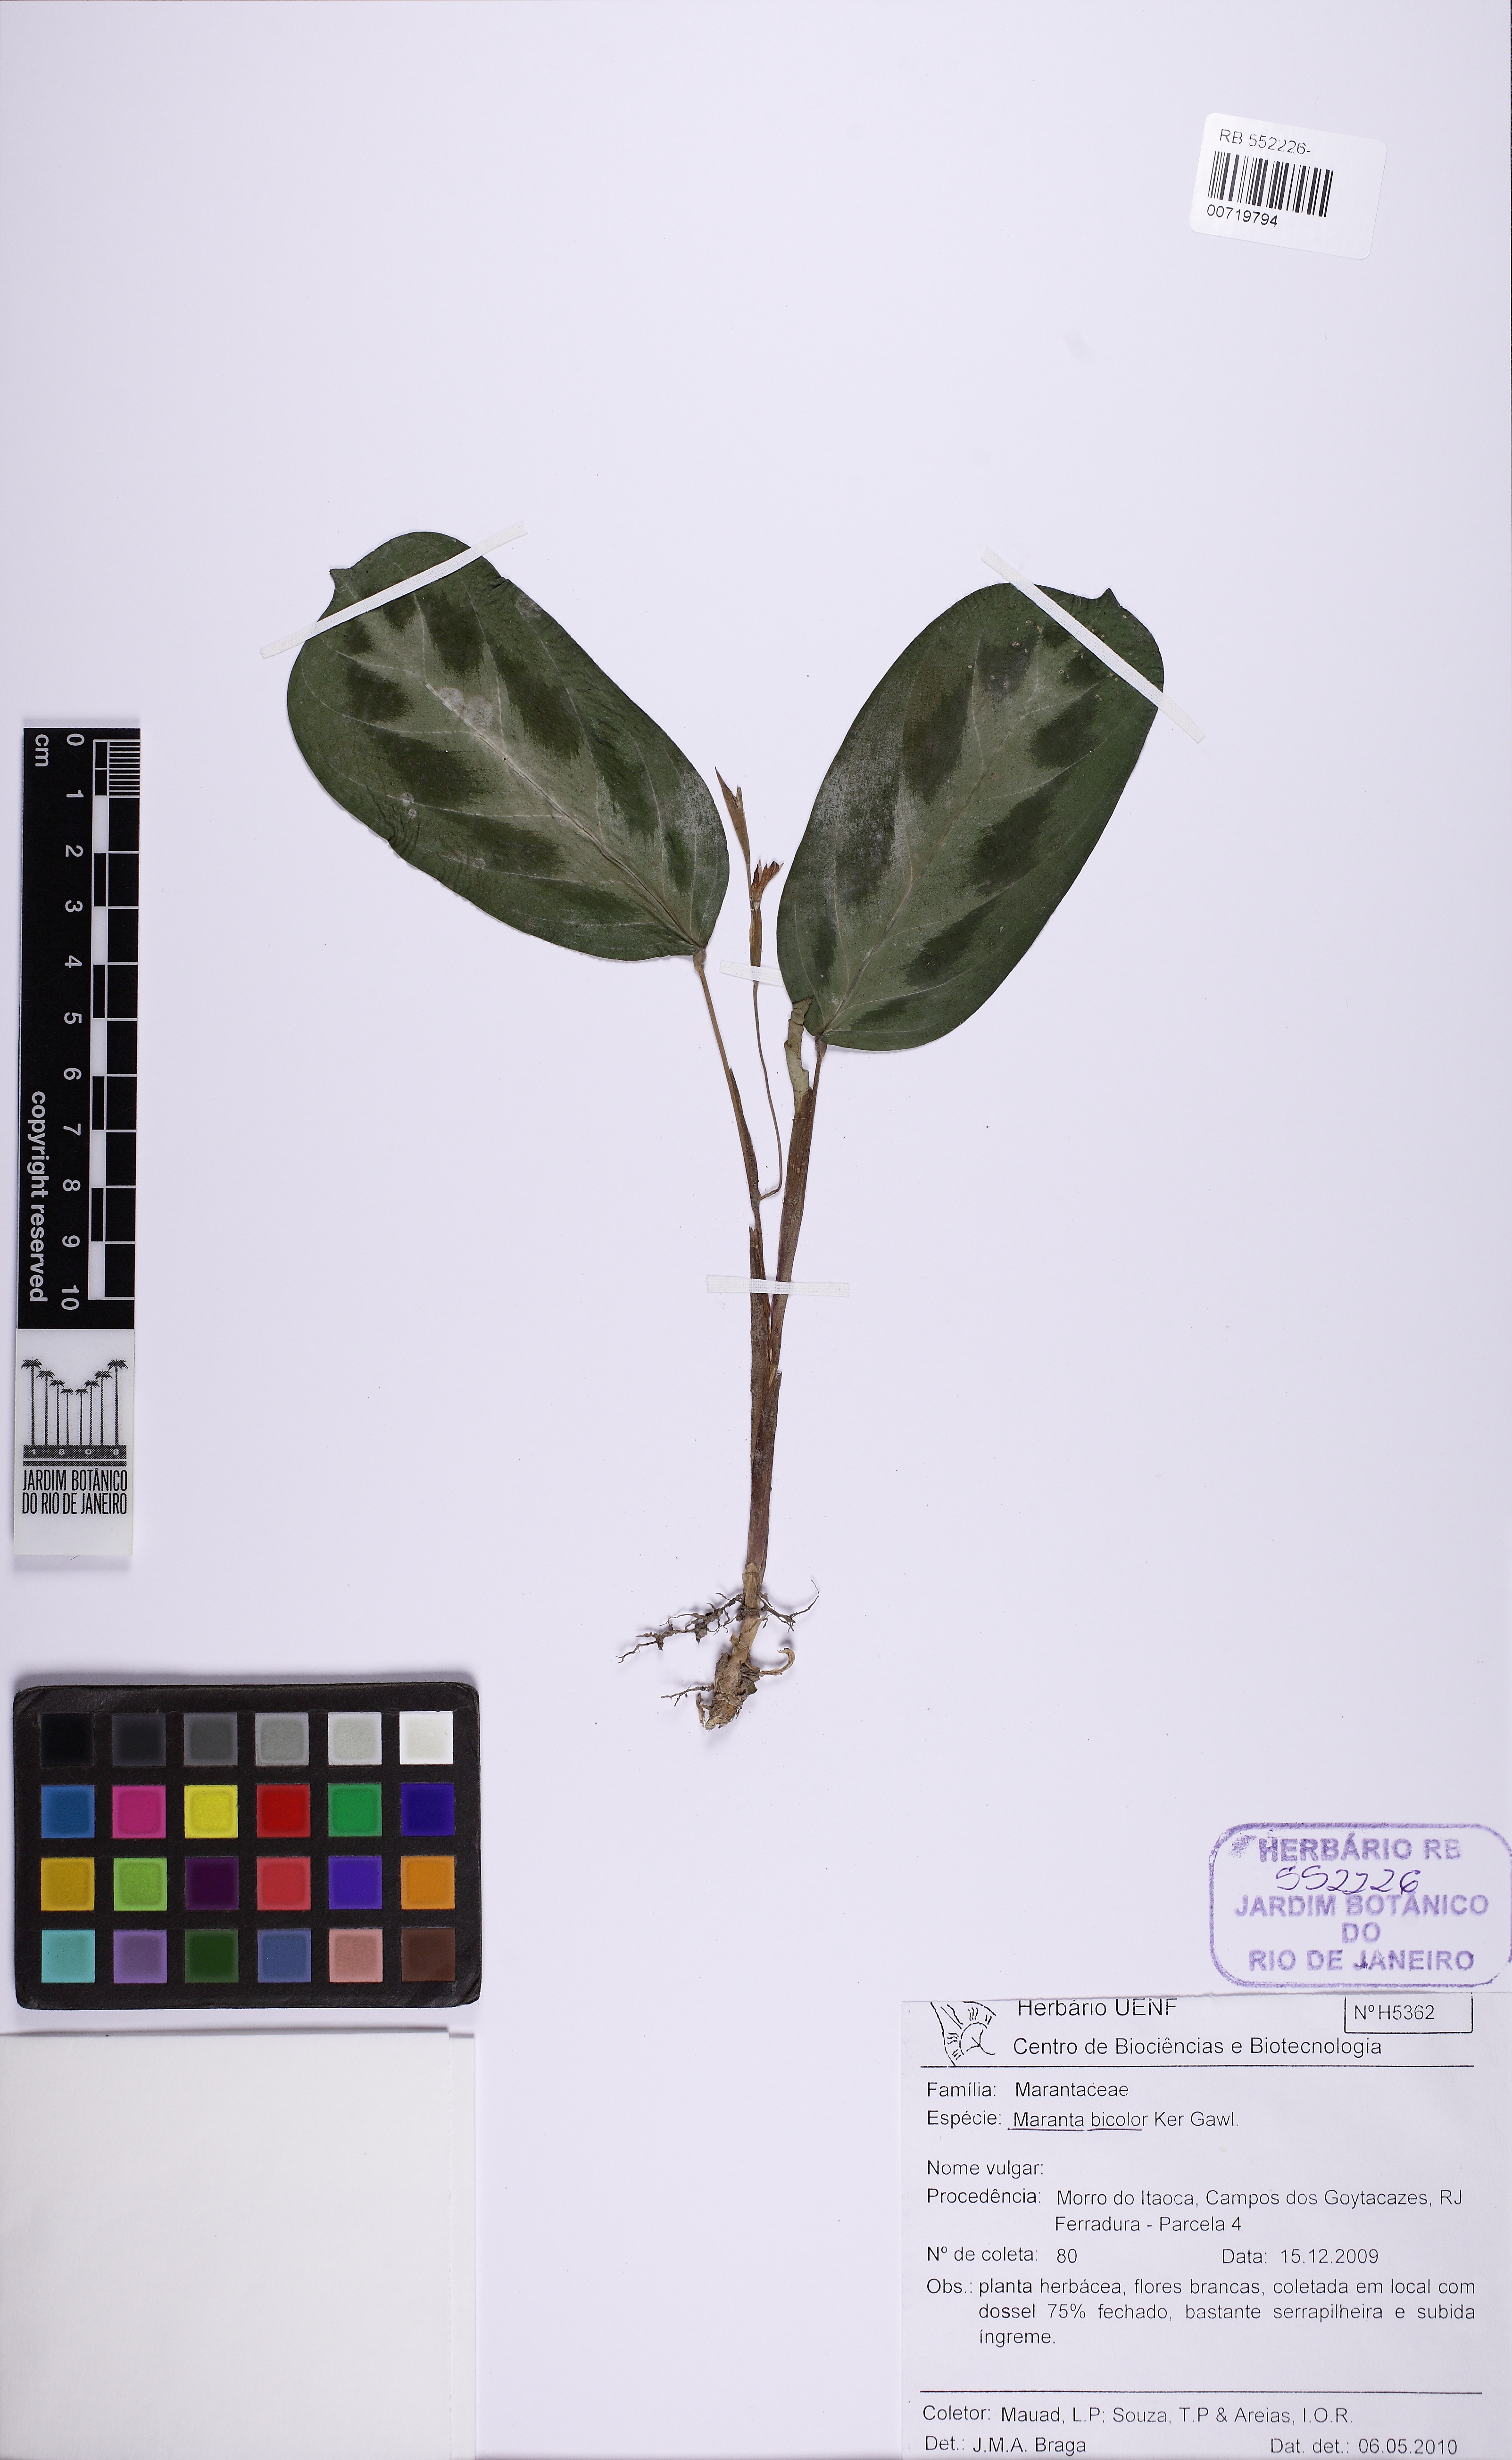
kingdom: Plantae
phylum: Tracheophyta
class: Liliopsida
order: Zingiberales
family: Marantaceae
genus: Maranta
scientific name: Maranta cristata
